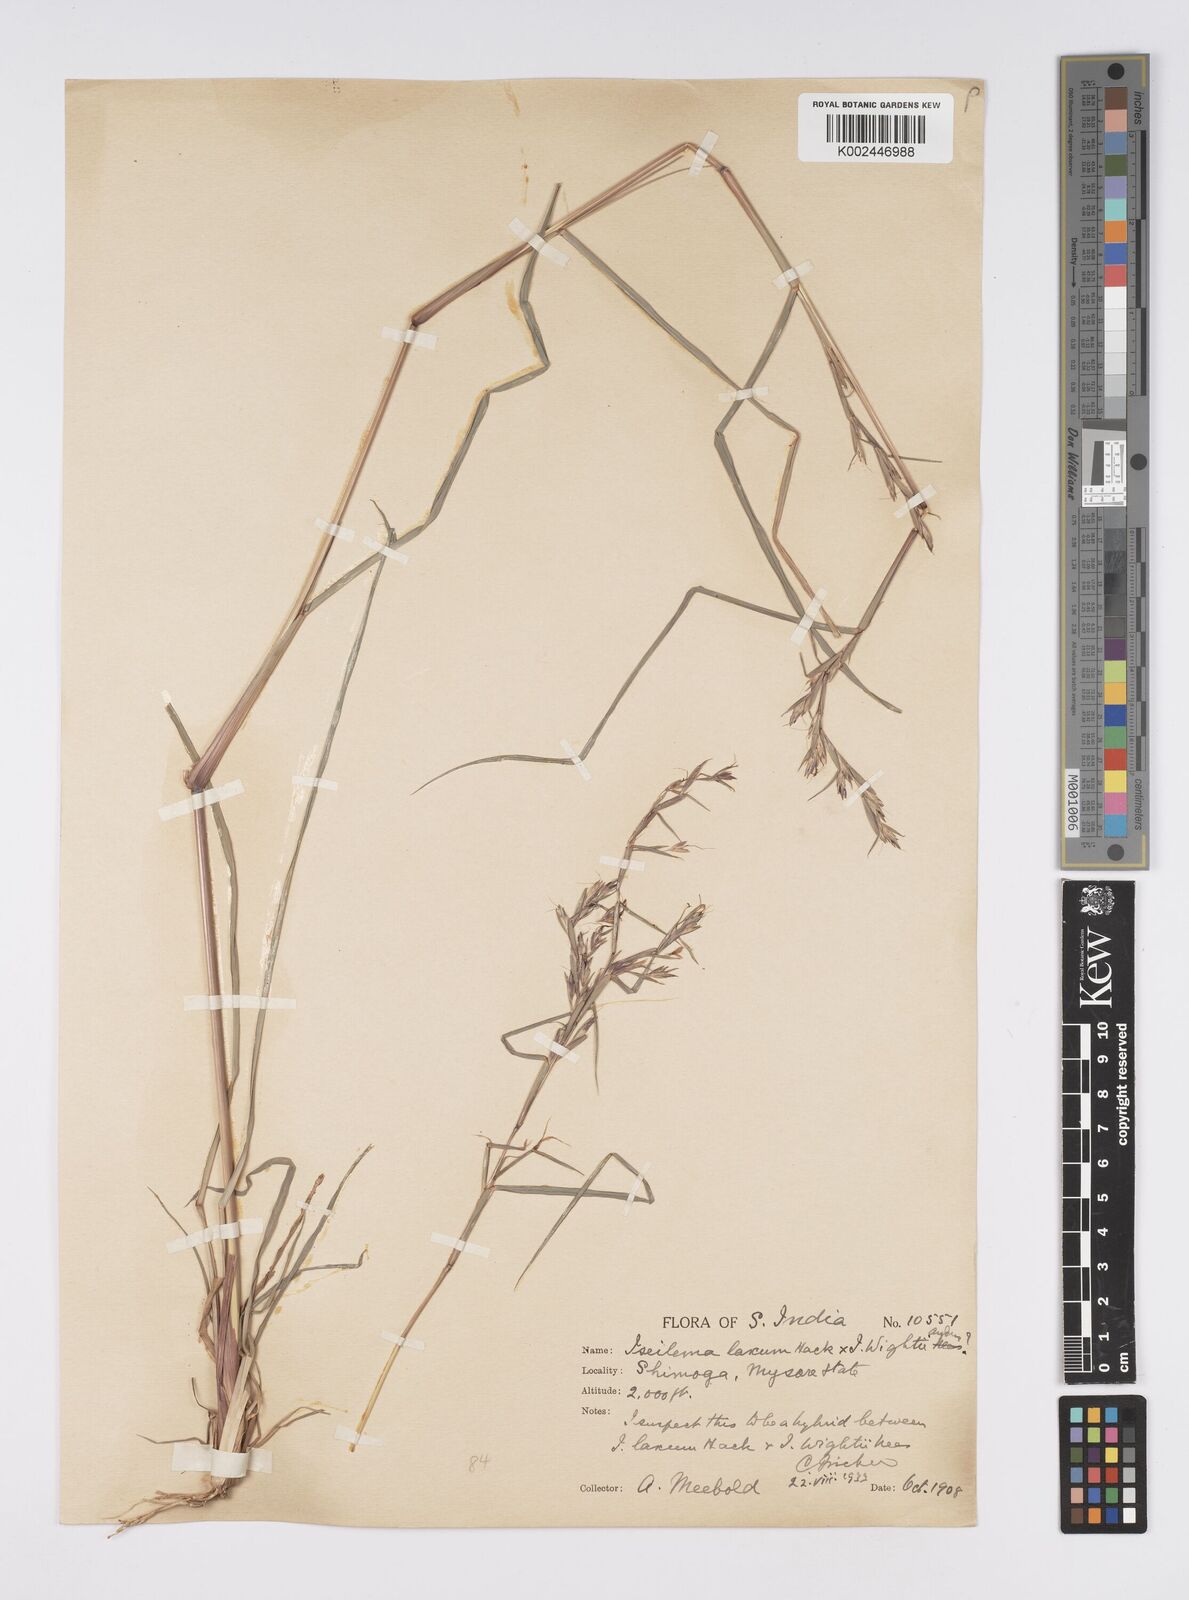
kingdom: Plantae
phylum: Tracheophyta
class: Liliopsida
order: Poales
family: Poaceae
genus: Iseilema
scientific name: Iseilema prostratum
